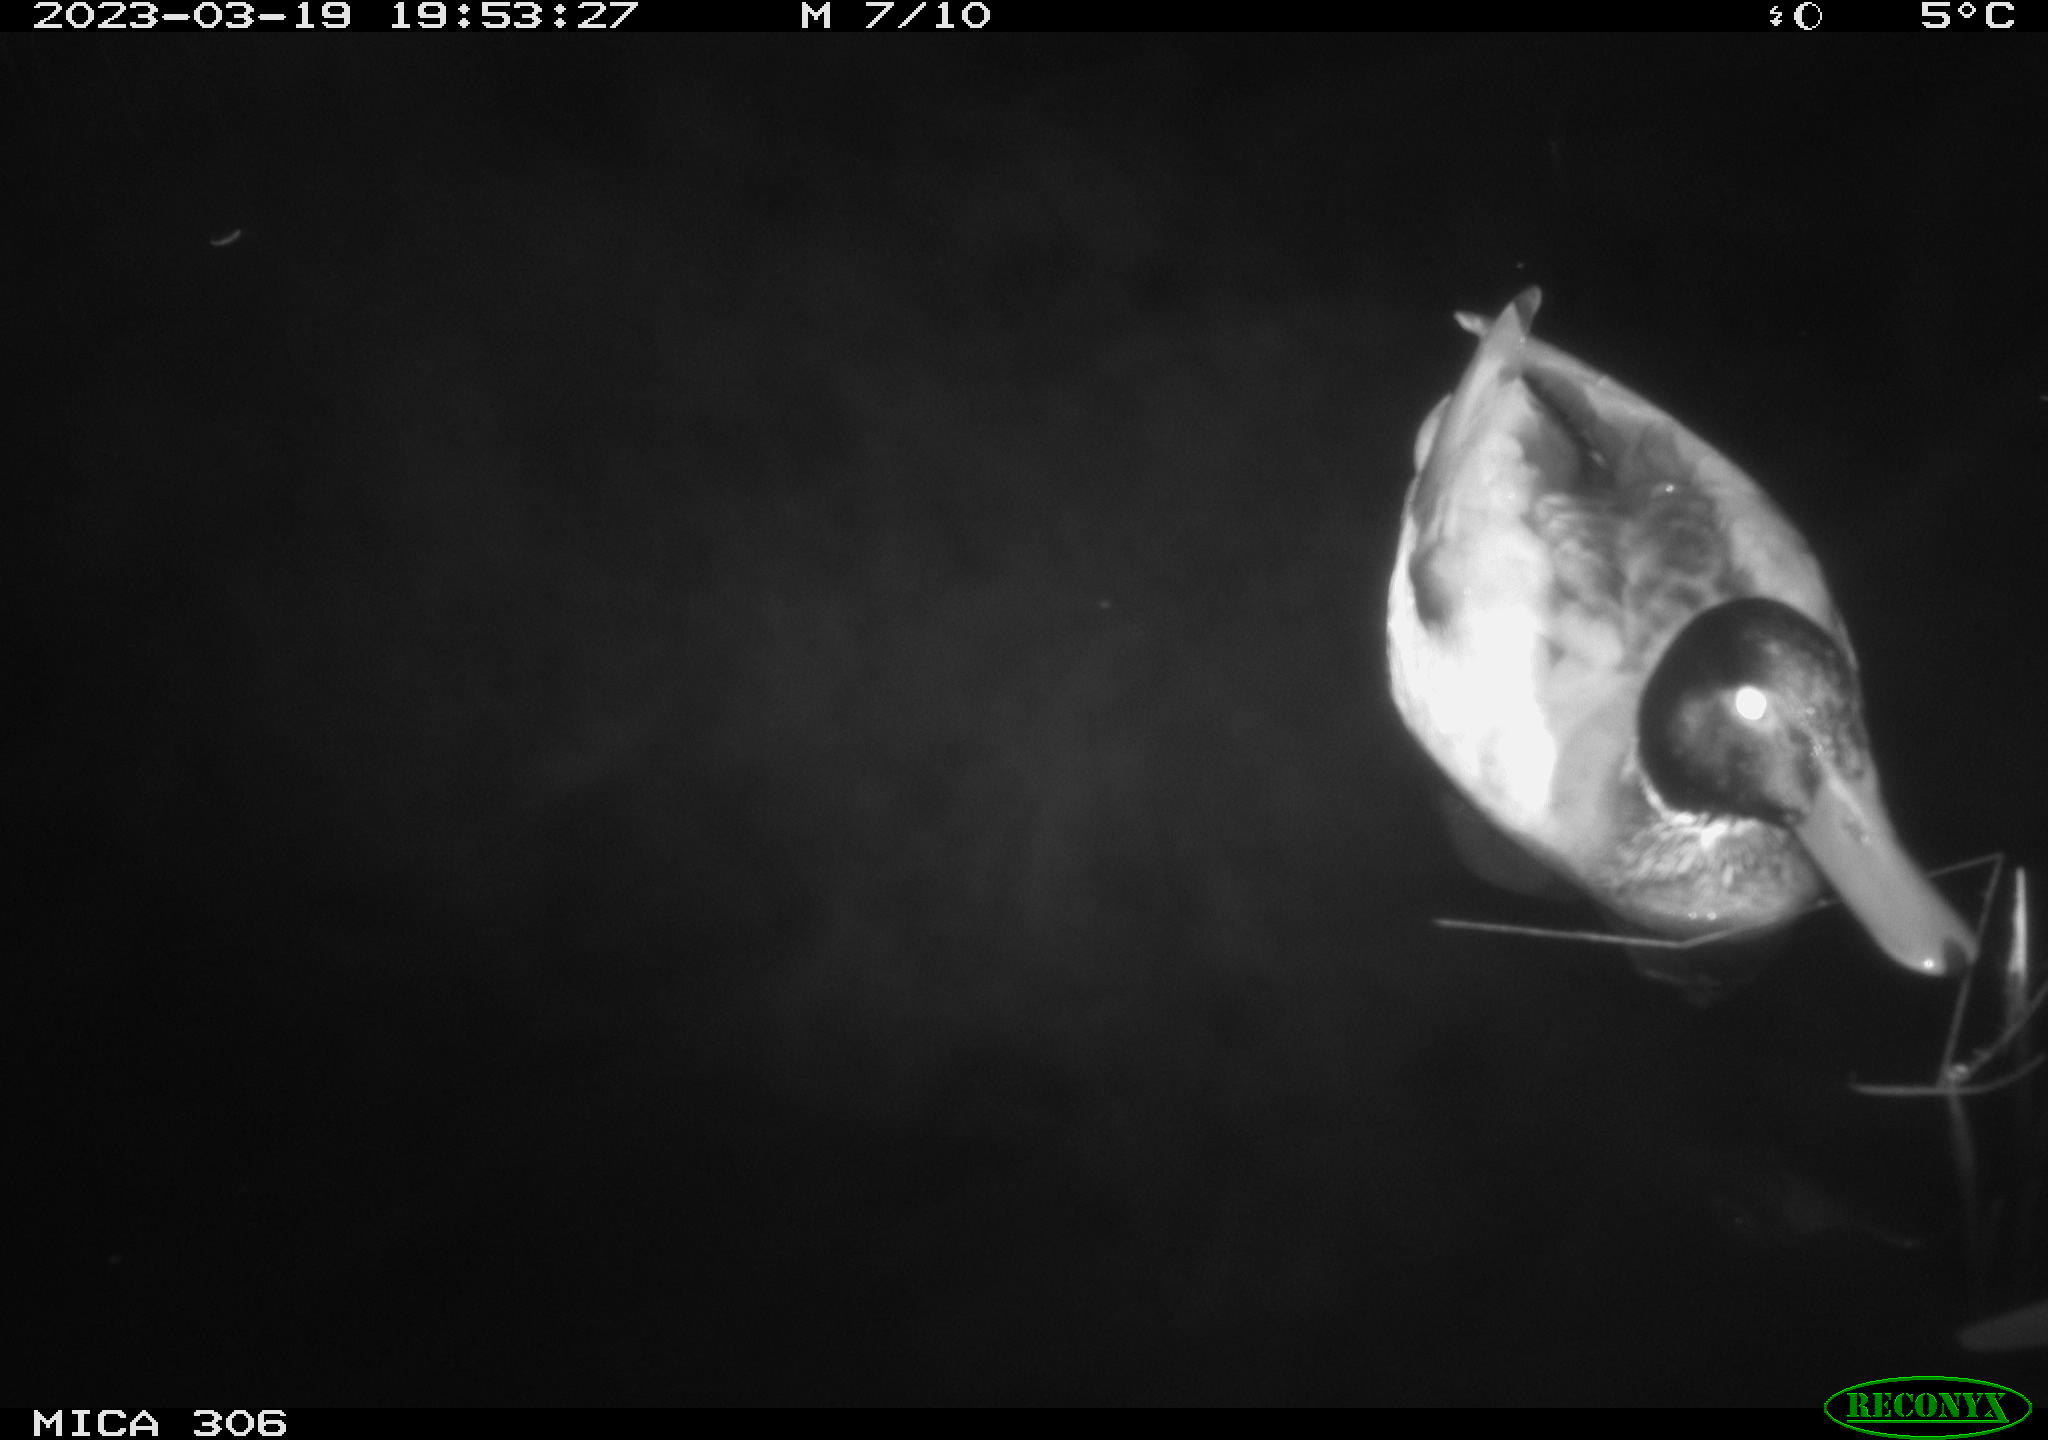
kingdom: Animalia
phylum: Chordata
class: Aves
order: Anseriformes
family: Anatidae
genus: Anas
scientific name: Anas
